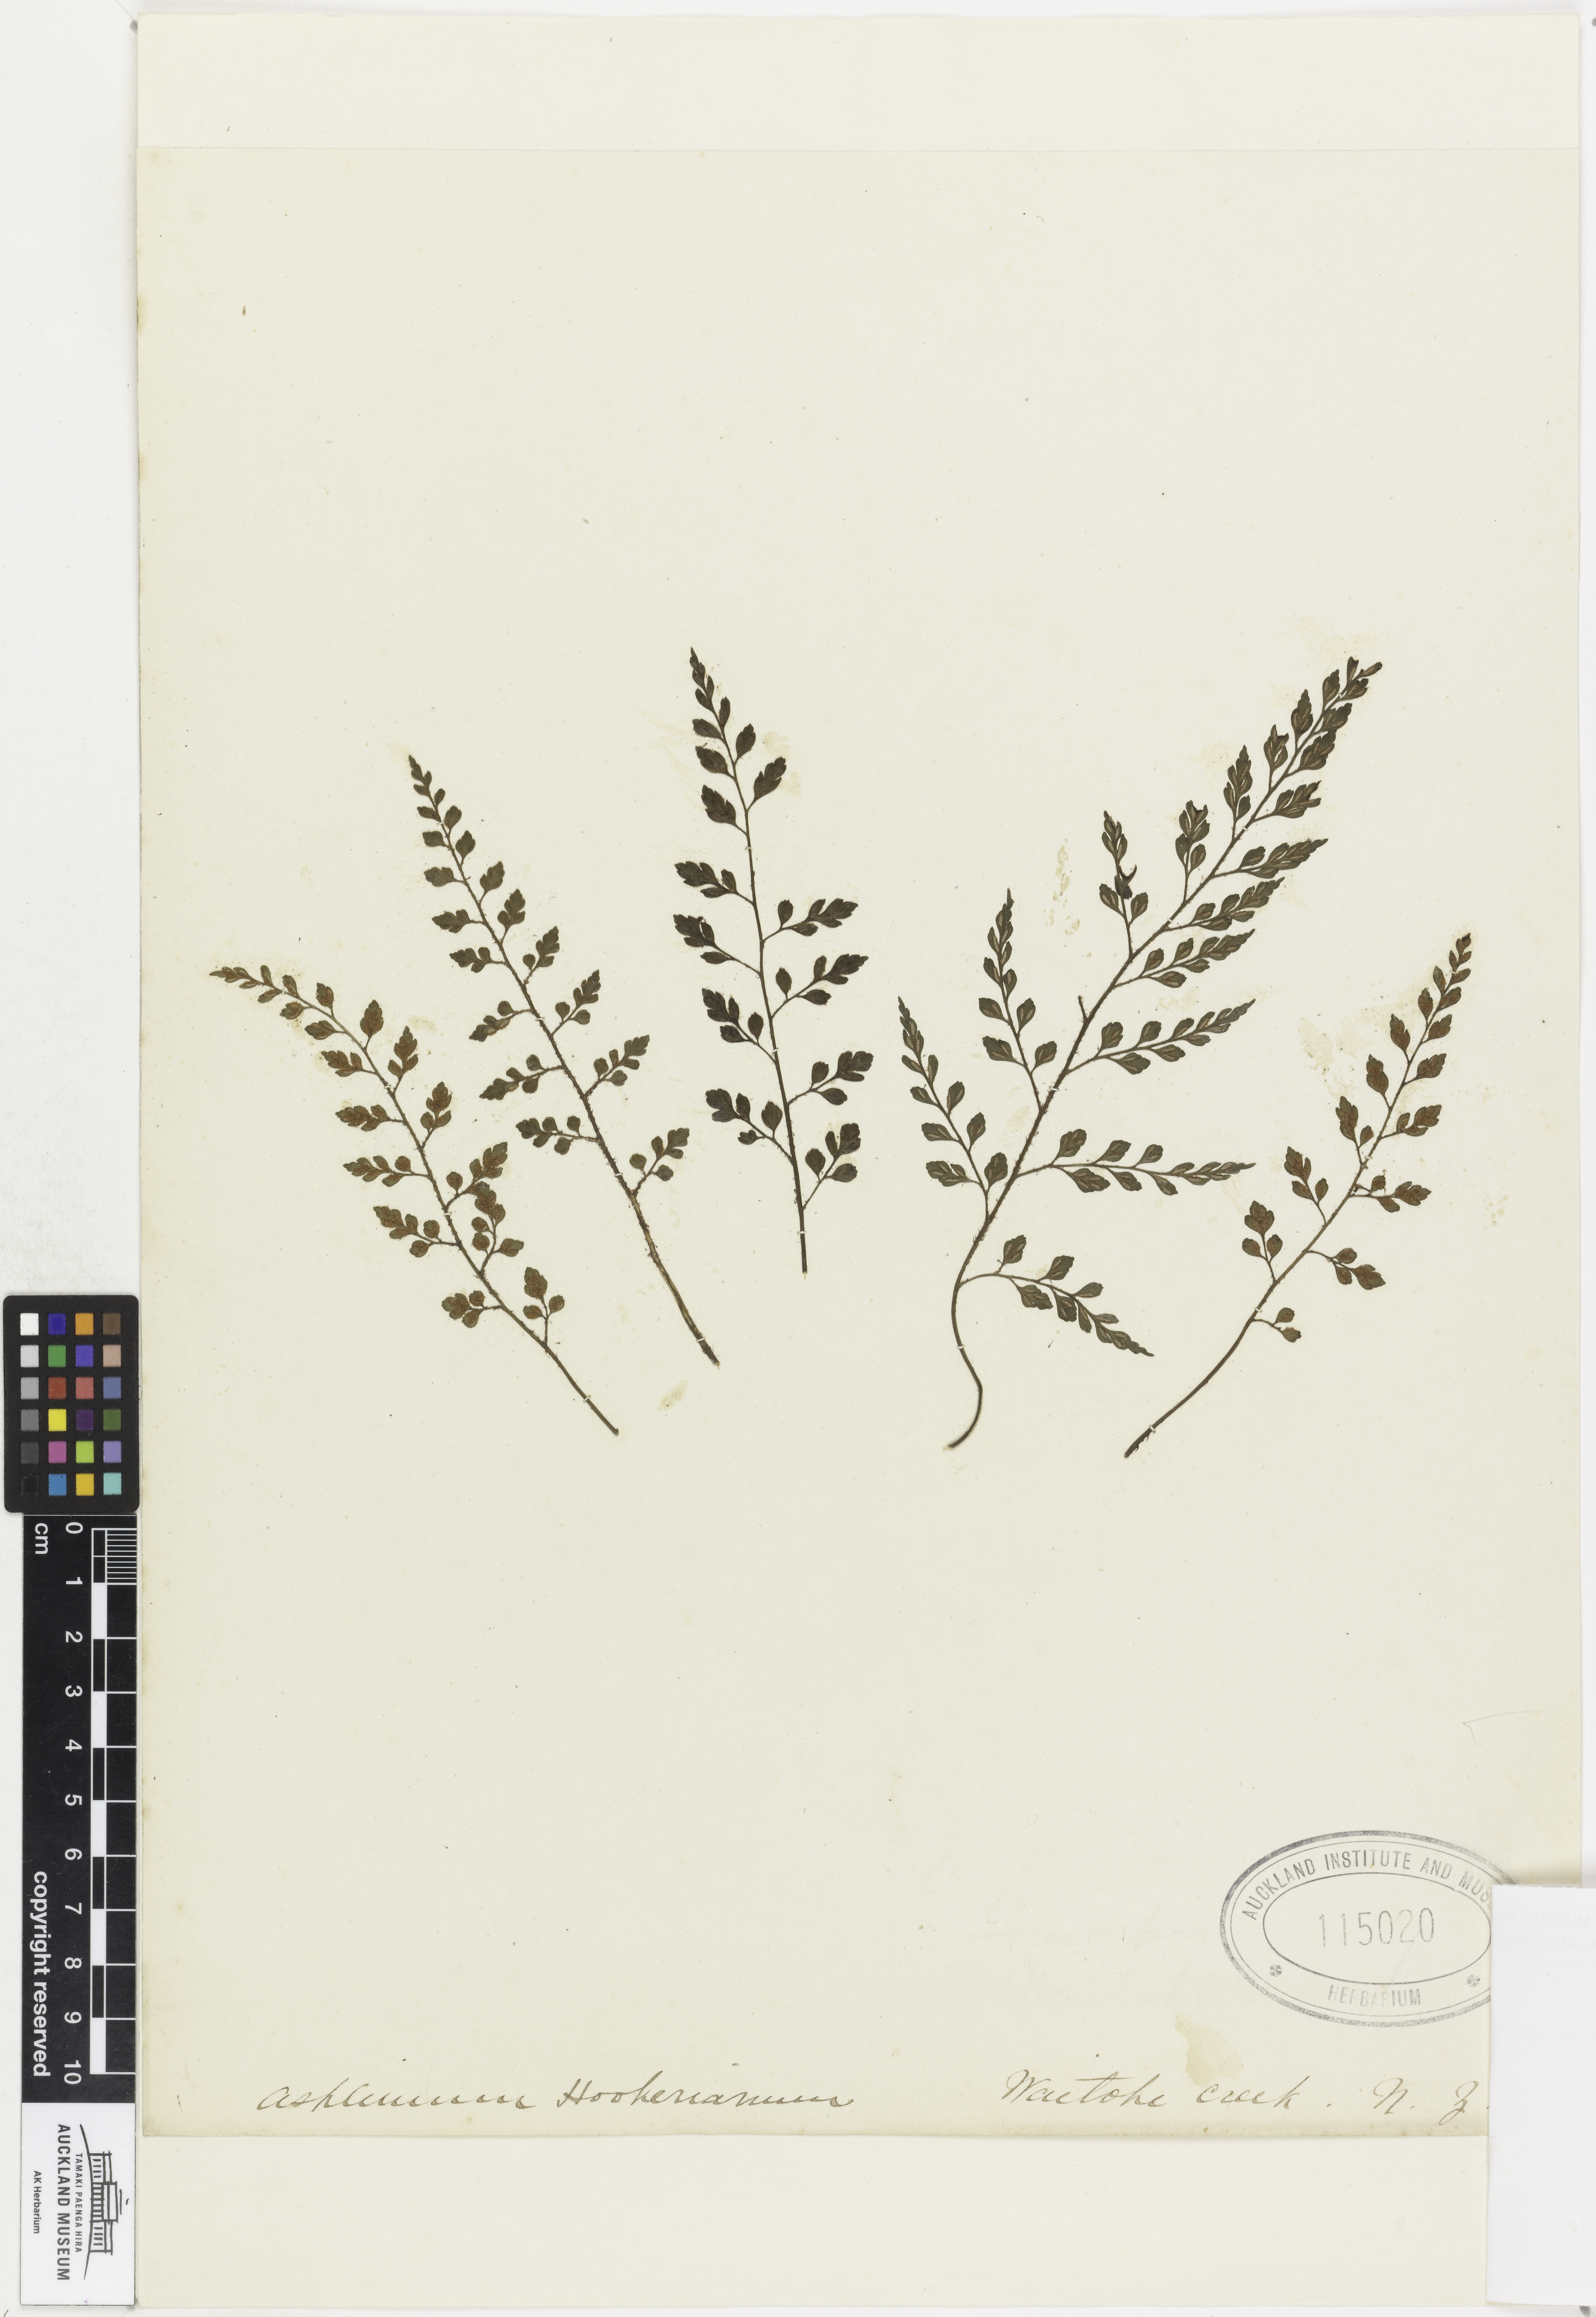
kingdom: Plantae
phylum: Tracheophyta
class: Polypodiopsida
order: Polypodiales
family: Aspleniaceae
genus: Asplenium
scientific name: Asplenium hookerianum
